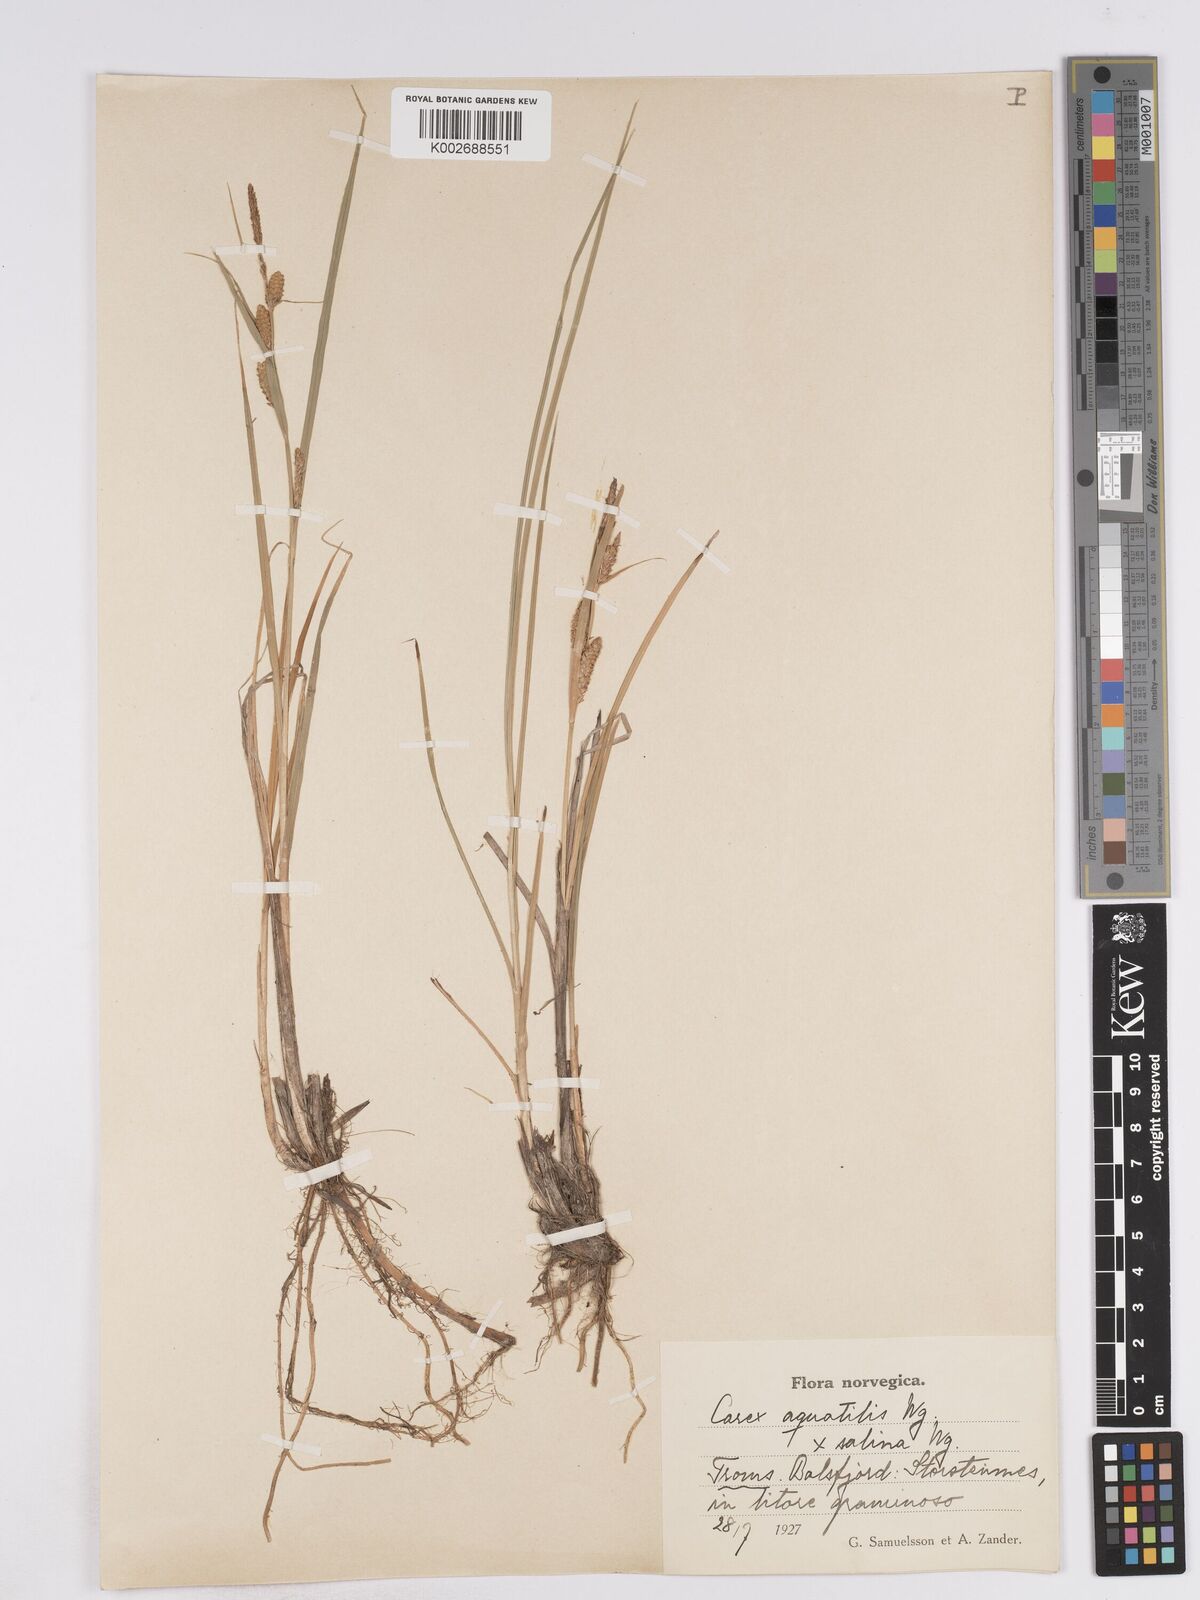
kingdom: Plantae
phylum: Tracheophyta
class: Liliopsida
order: Poales
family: Cyperaceae
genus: Carex
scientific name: Carex recta
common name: Estuarine sedge
